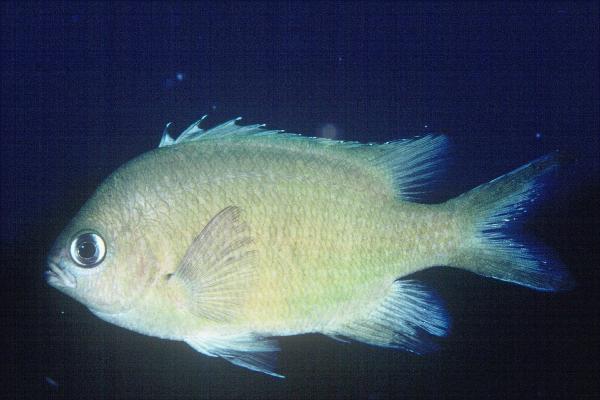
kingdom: Animalia
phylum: Chordata
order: Perciformes
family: Pomacentridae
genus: Chromis
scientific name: Chromis lepidolepis
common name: Scaly chromis
